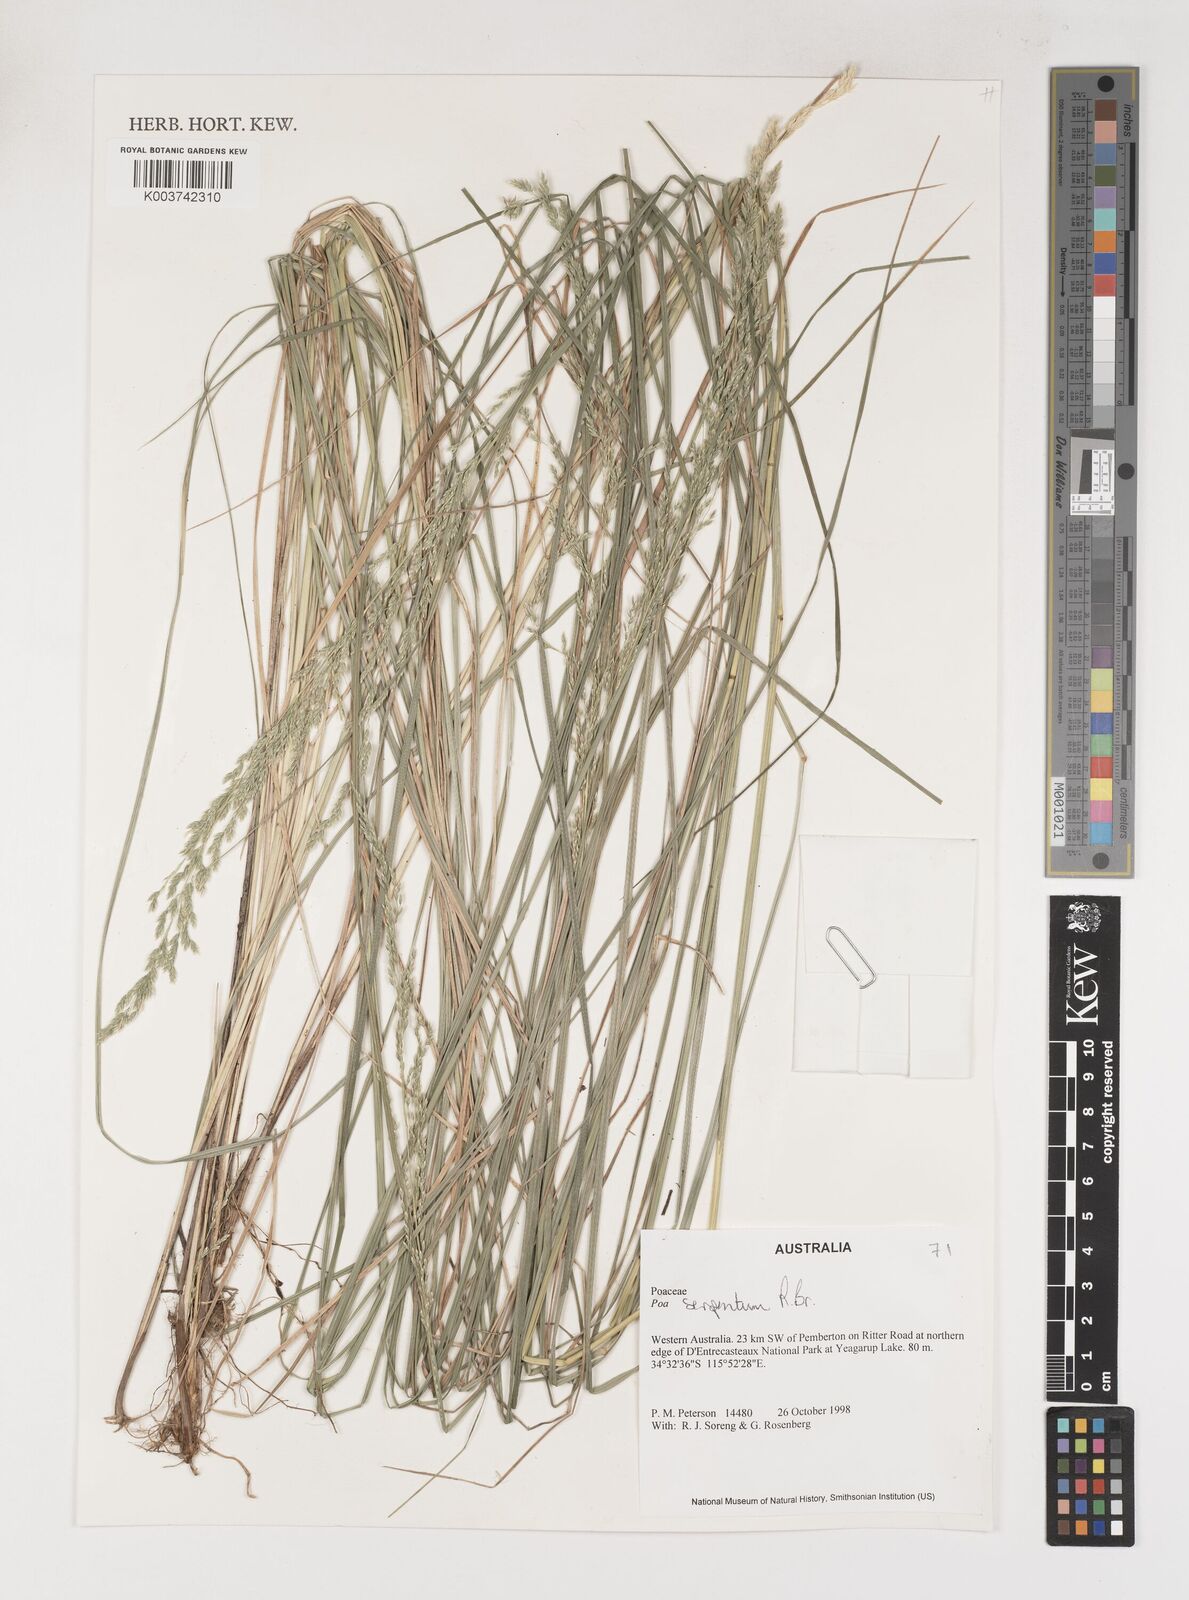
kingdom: Plantae
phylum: Tracheophyta
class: Liliopsida
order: Poales
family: Poaceae
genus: Poa
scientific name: Poa porphyroclados
